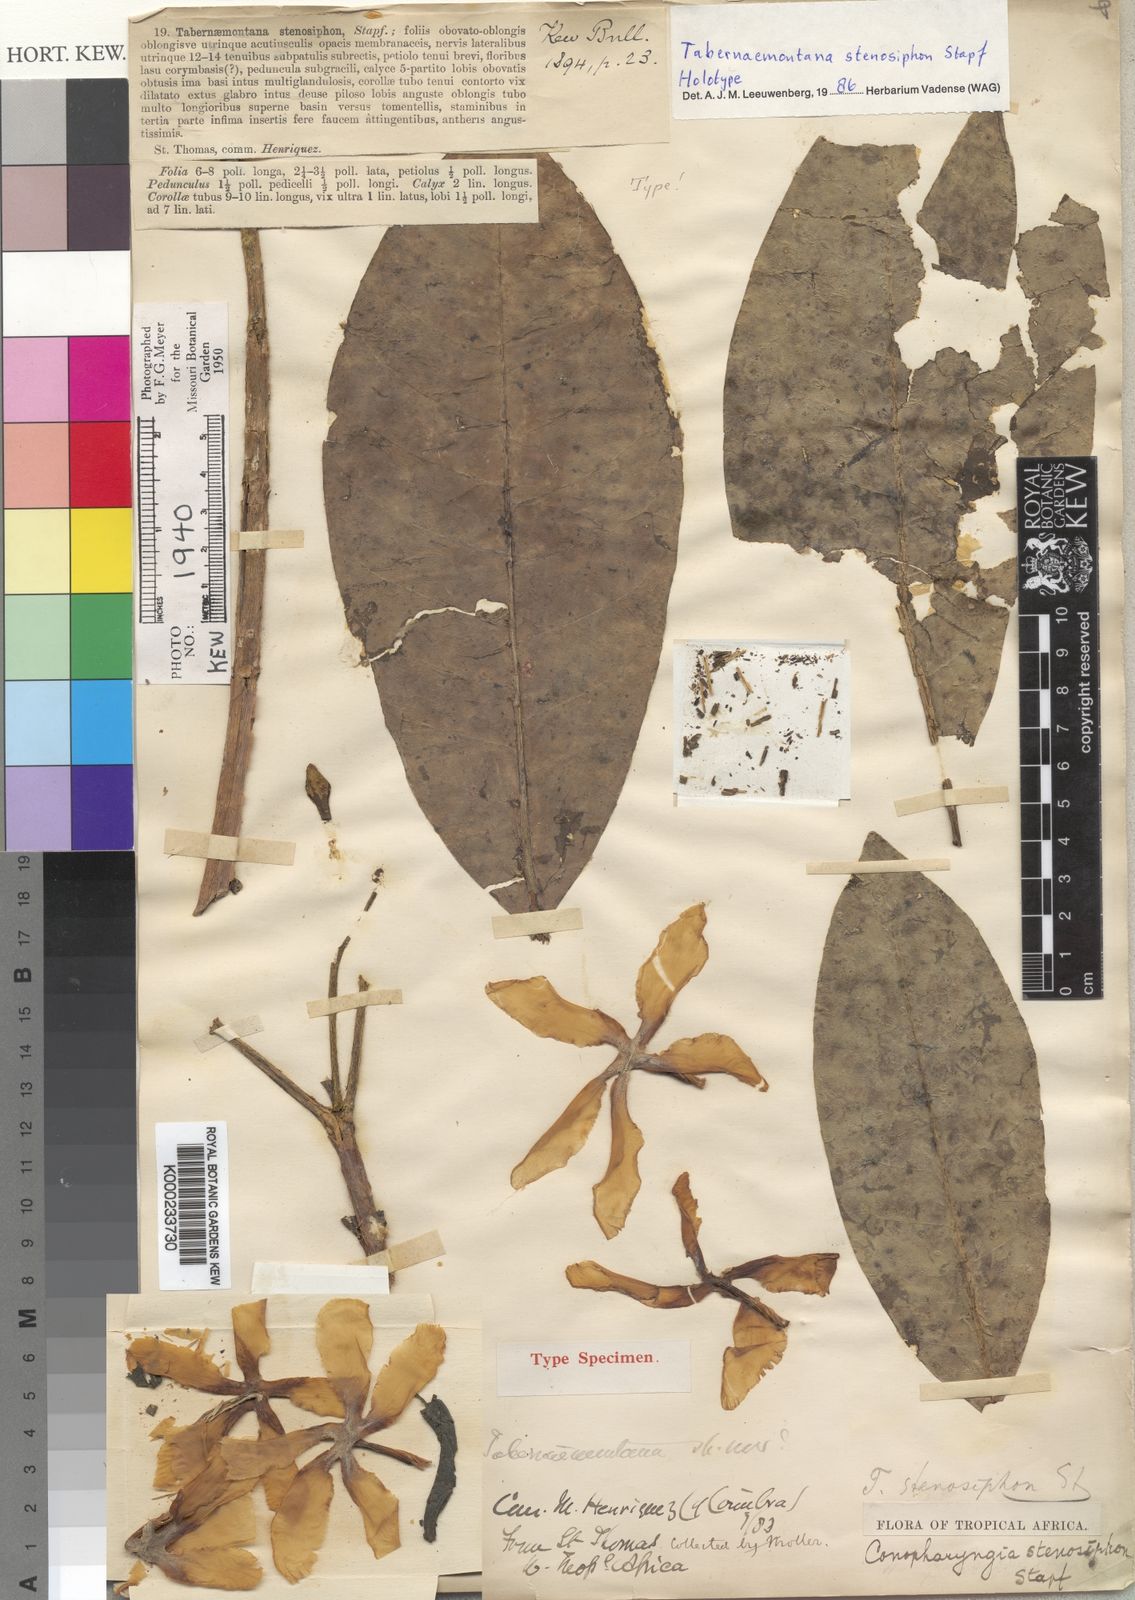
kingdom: Plantae
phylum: Tracheophyta
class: Magnoliopsida
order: Gentianales
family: Apocynaceae
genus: Tabernaemontana
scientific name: Tabernaemontana stenosiphon
